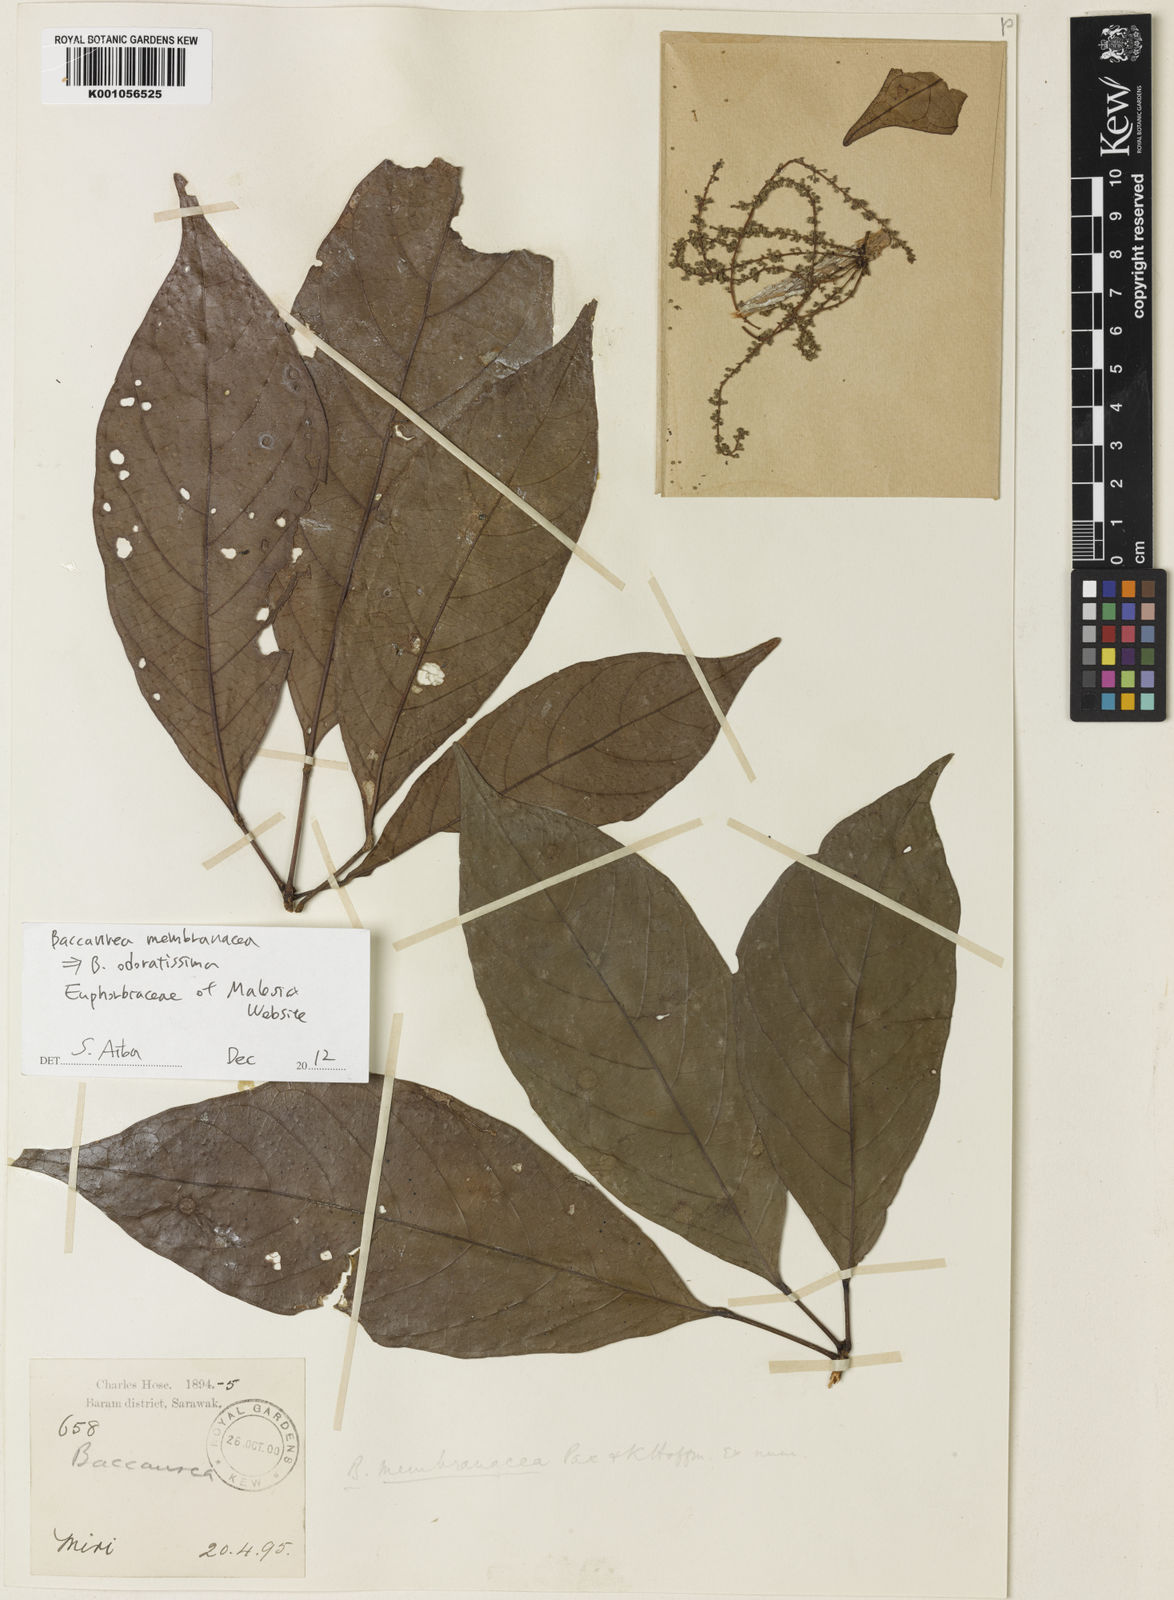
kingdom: Plantae
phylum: Tracheophyta
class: Magnoliopsida
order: Malpighiales
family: Phyllanthaceae
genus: Baccaurea
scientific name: Baccaurea odoratissima
